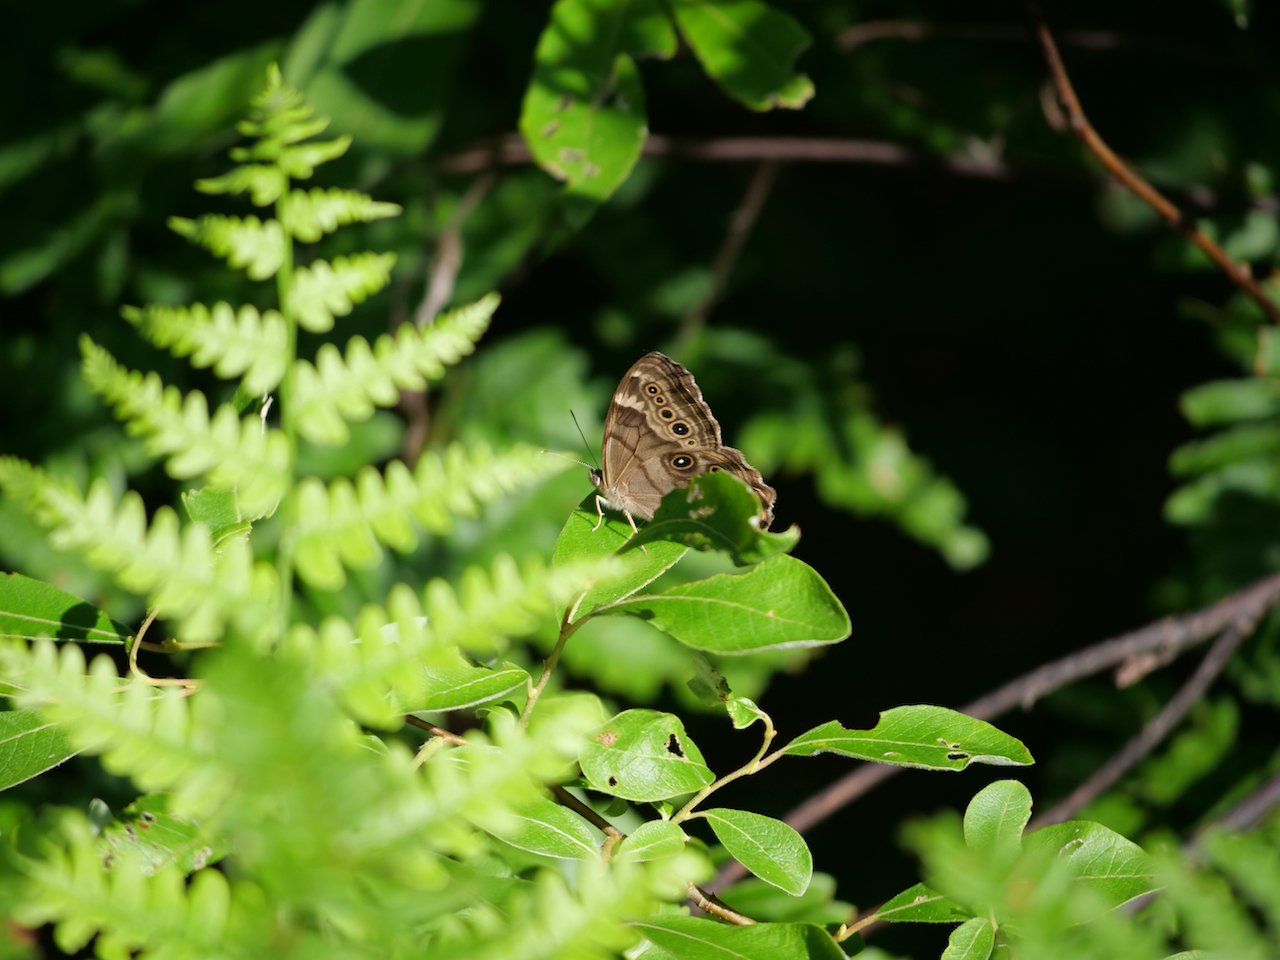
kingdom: Animalia
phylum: Arthropoda
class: Insecta
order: Lepidoptera
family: Nymphalidae
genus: Lethe
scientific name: Lethe anthedon
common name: Northern Pearly-Eye
